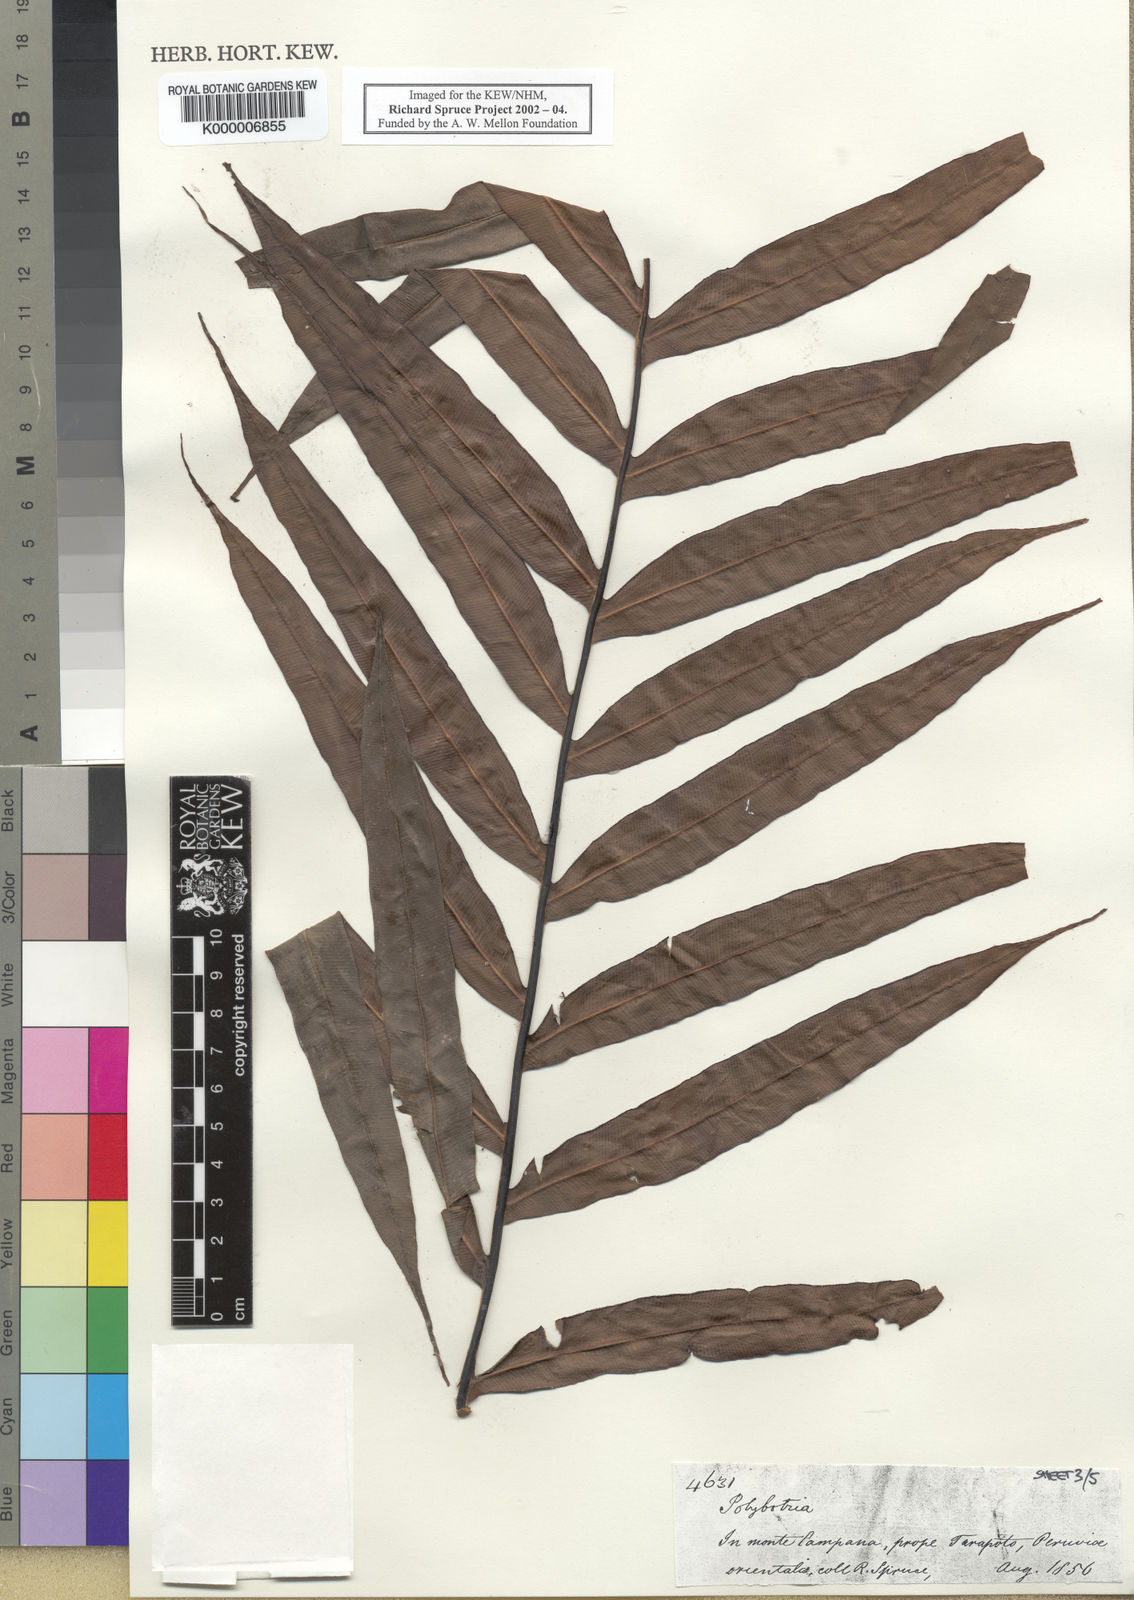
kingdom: Plantae
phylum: Tracheophyta
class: Polypodiopsida
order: Polypodiales
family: Dryopteridaceae
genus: Polybotrya
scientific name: Polybotrya
